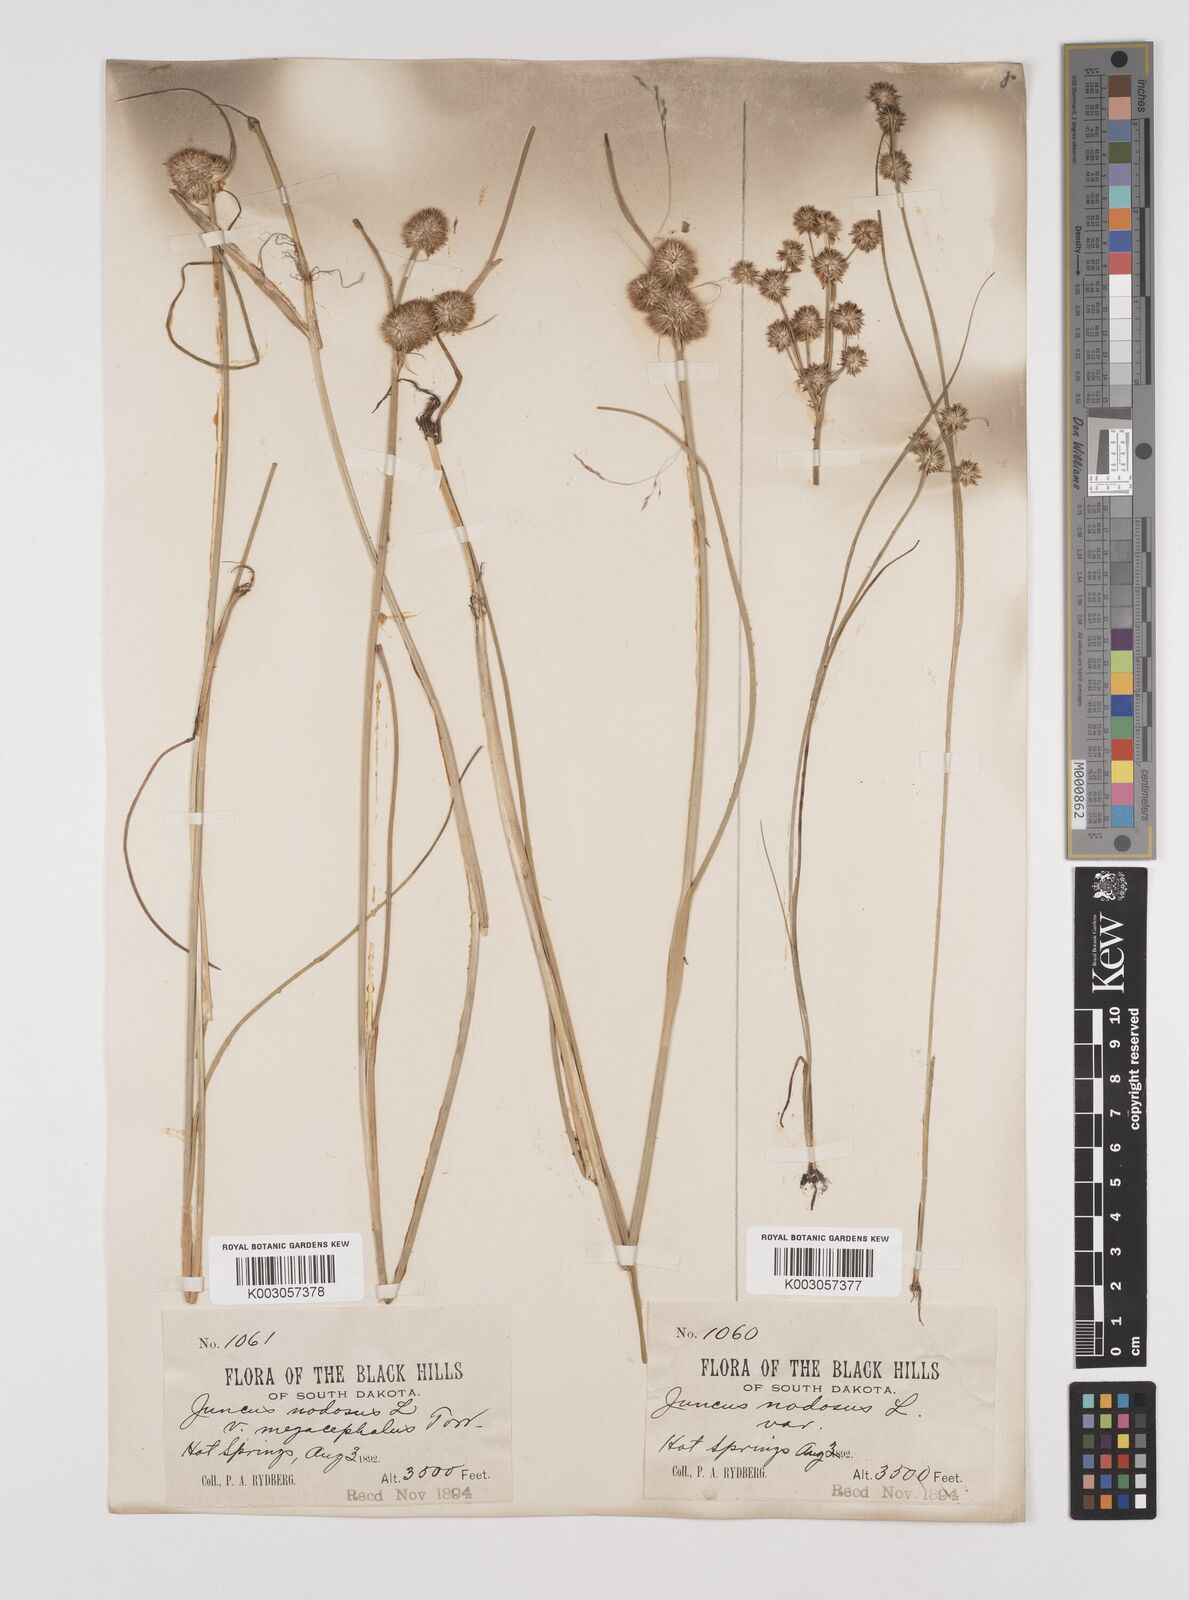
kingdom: Plantae
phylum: Tracheophyta
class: Liliopsida
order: Poales
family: Juncaceae
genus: Juncus
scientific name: Juncus nodosus
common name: Knotted rush
